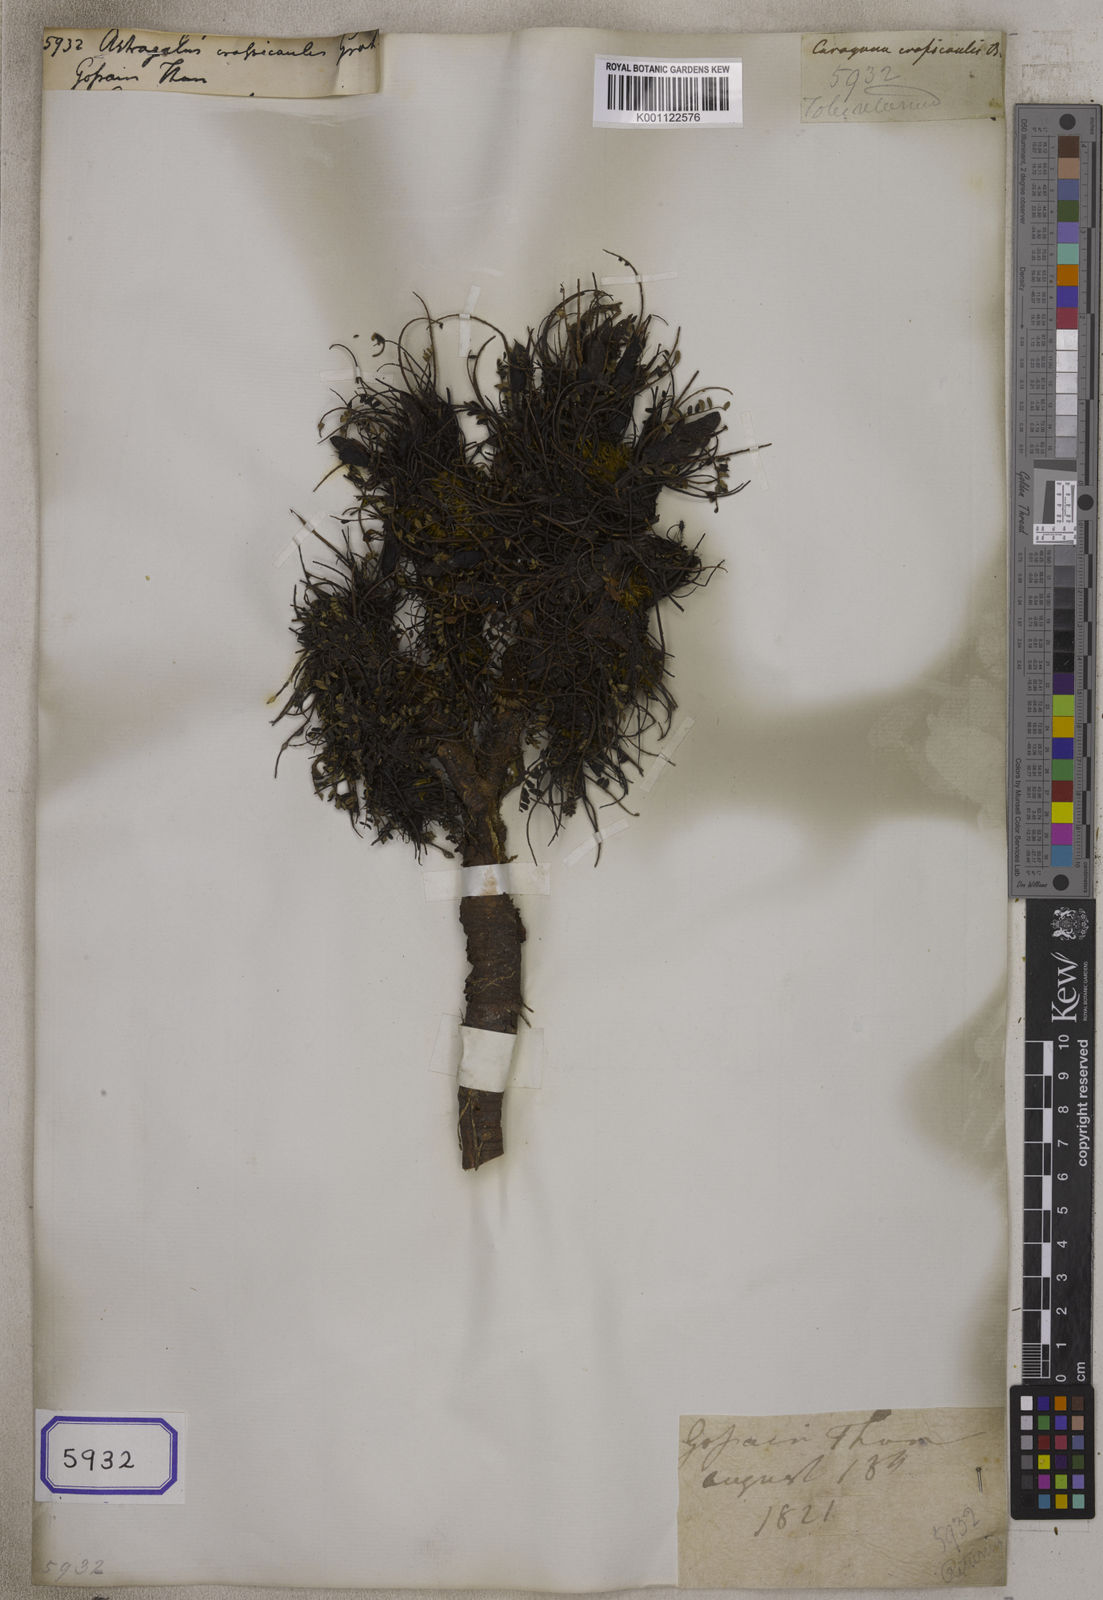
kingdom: Plantae
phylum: Tracheophyta
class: Magnoliopsida
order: Fabales
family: Fabaceae
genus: Chesneya
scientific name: Chesneya nubigena
